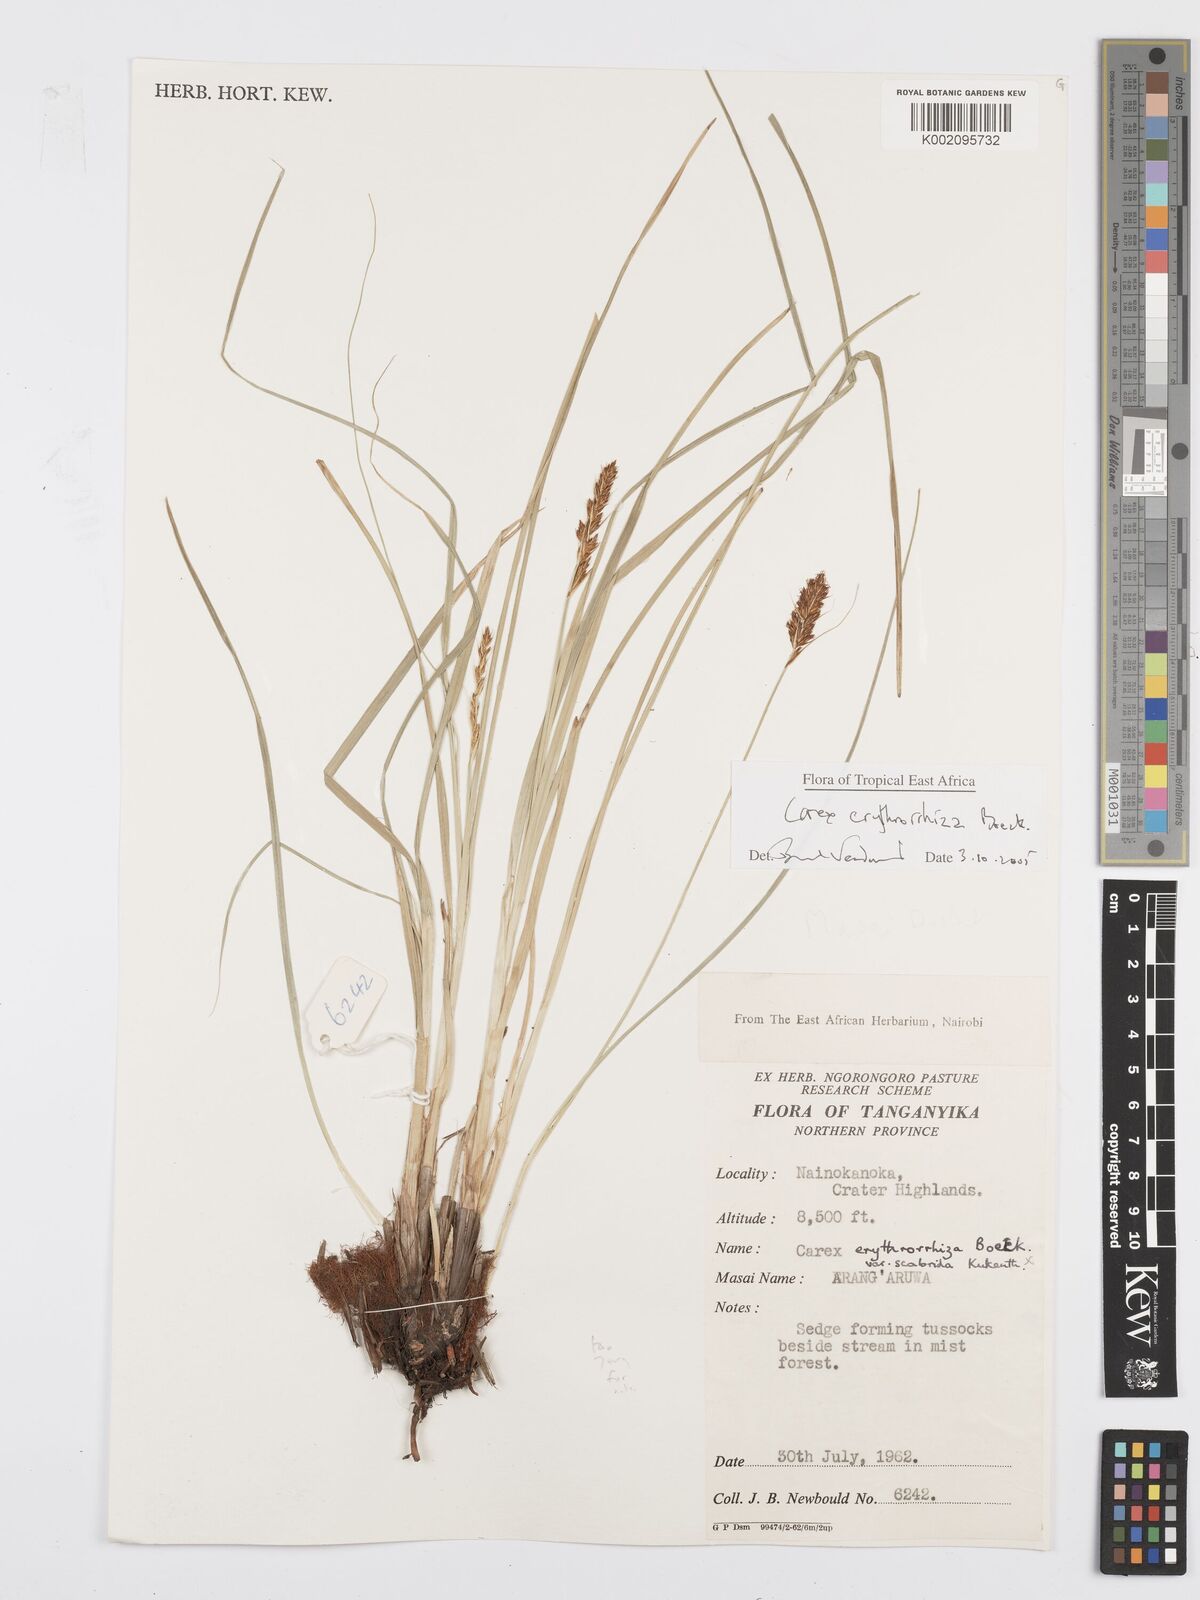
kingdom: Plantae
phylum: Tracheophyta
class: Liliopsida
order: Poales
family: Cyperaceae
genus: Carex
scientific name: Carex erythrorrhiza
